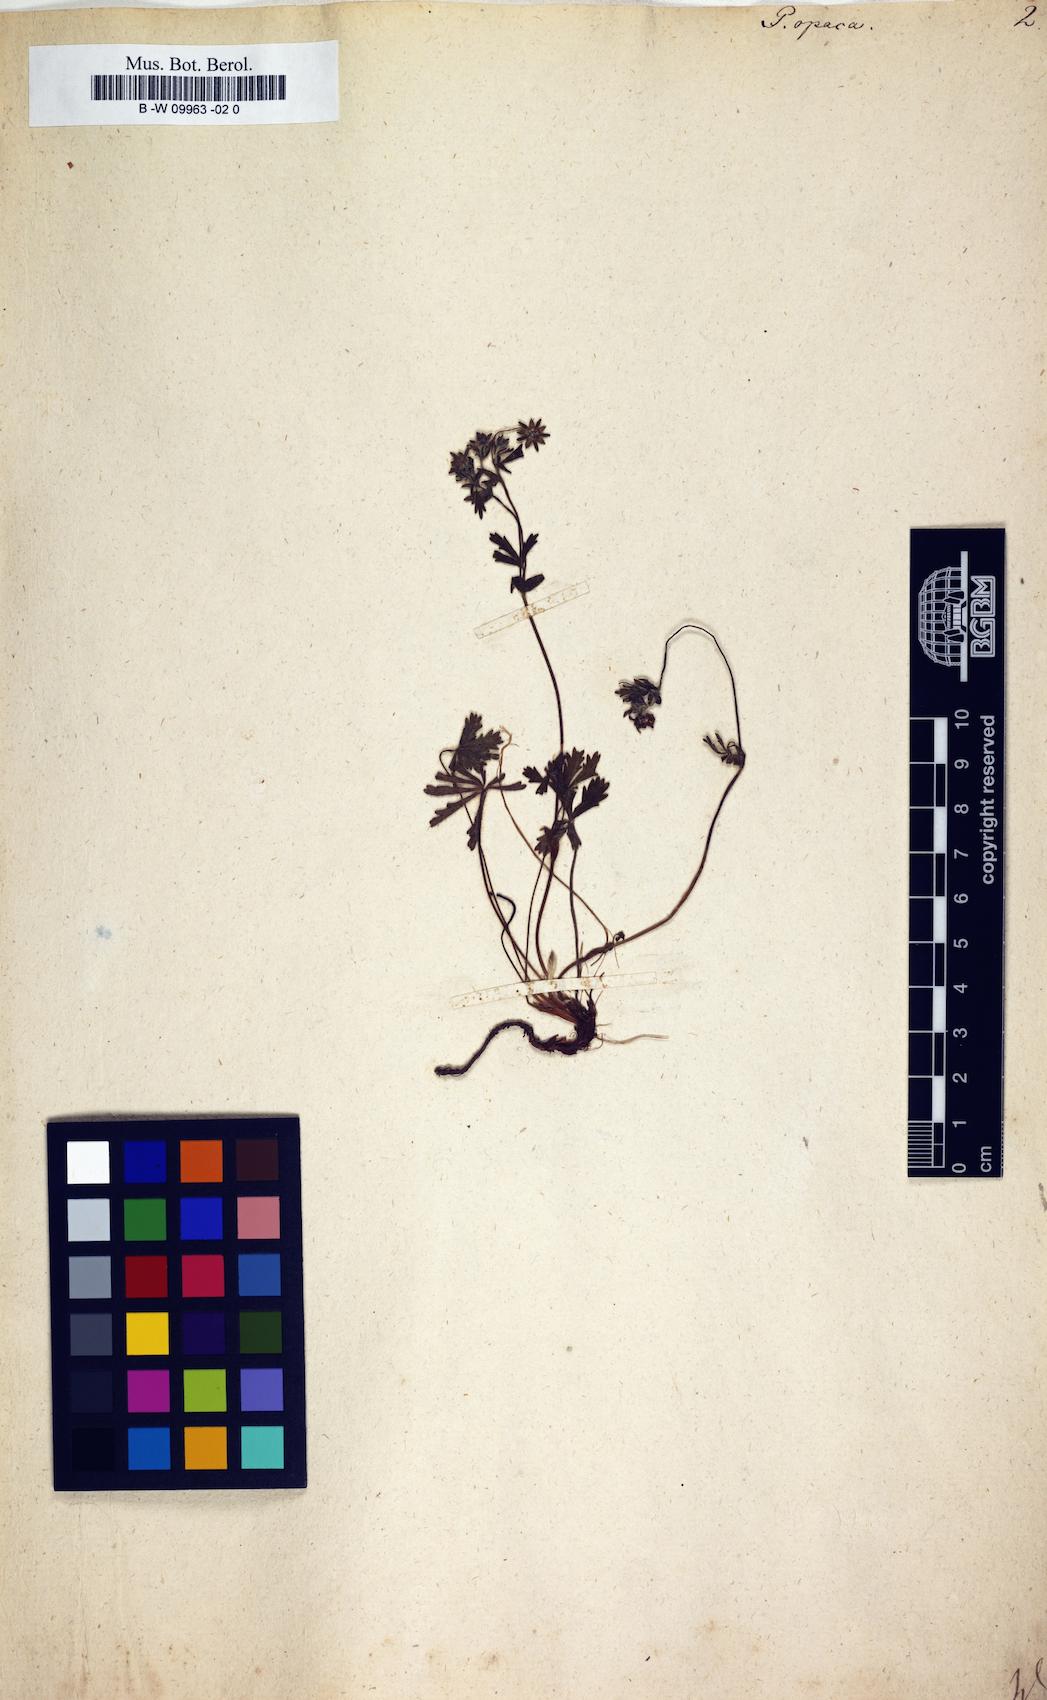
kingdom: Plantae
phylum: Tracheophyta
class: Magnoliopsida
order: Rosales
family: Rosaceae
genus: Potentilla
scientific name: Potentilla
